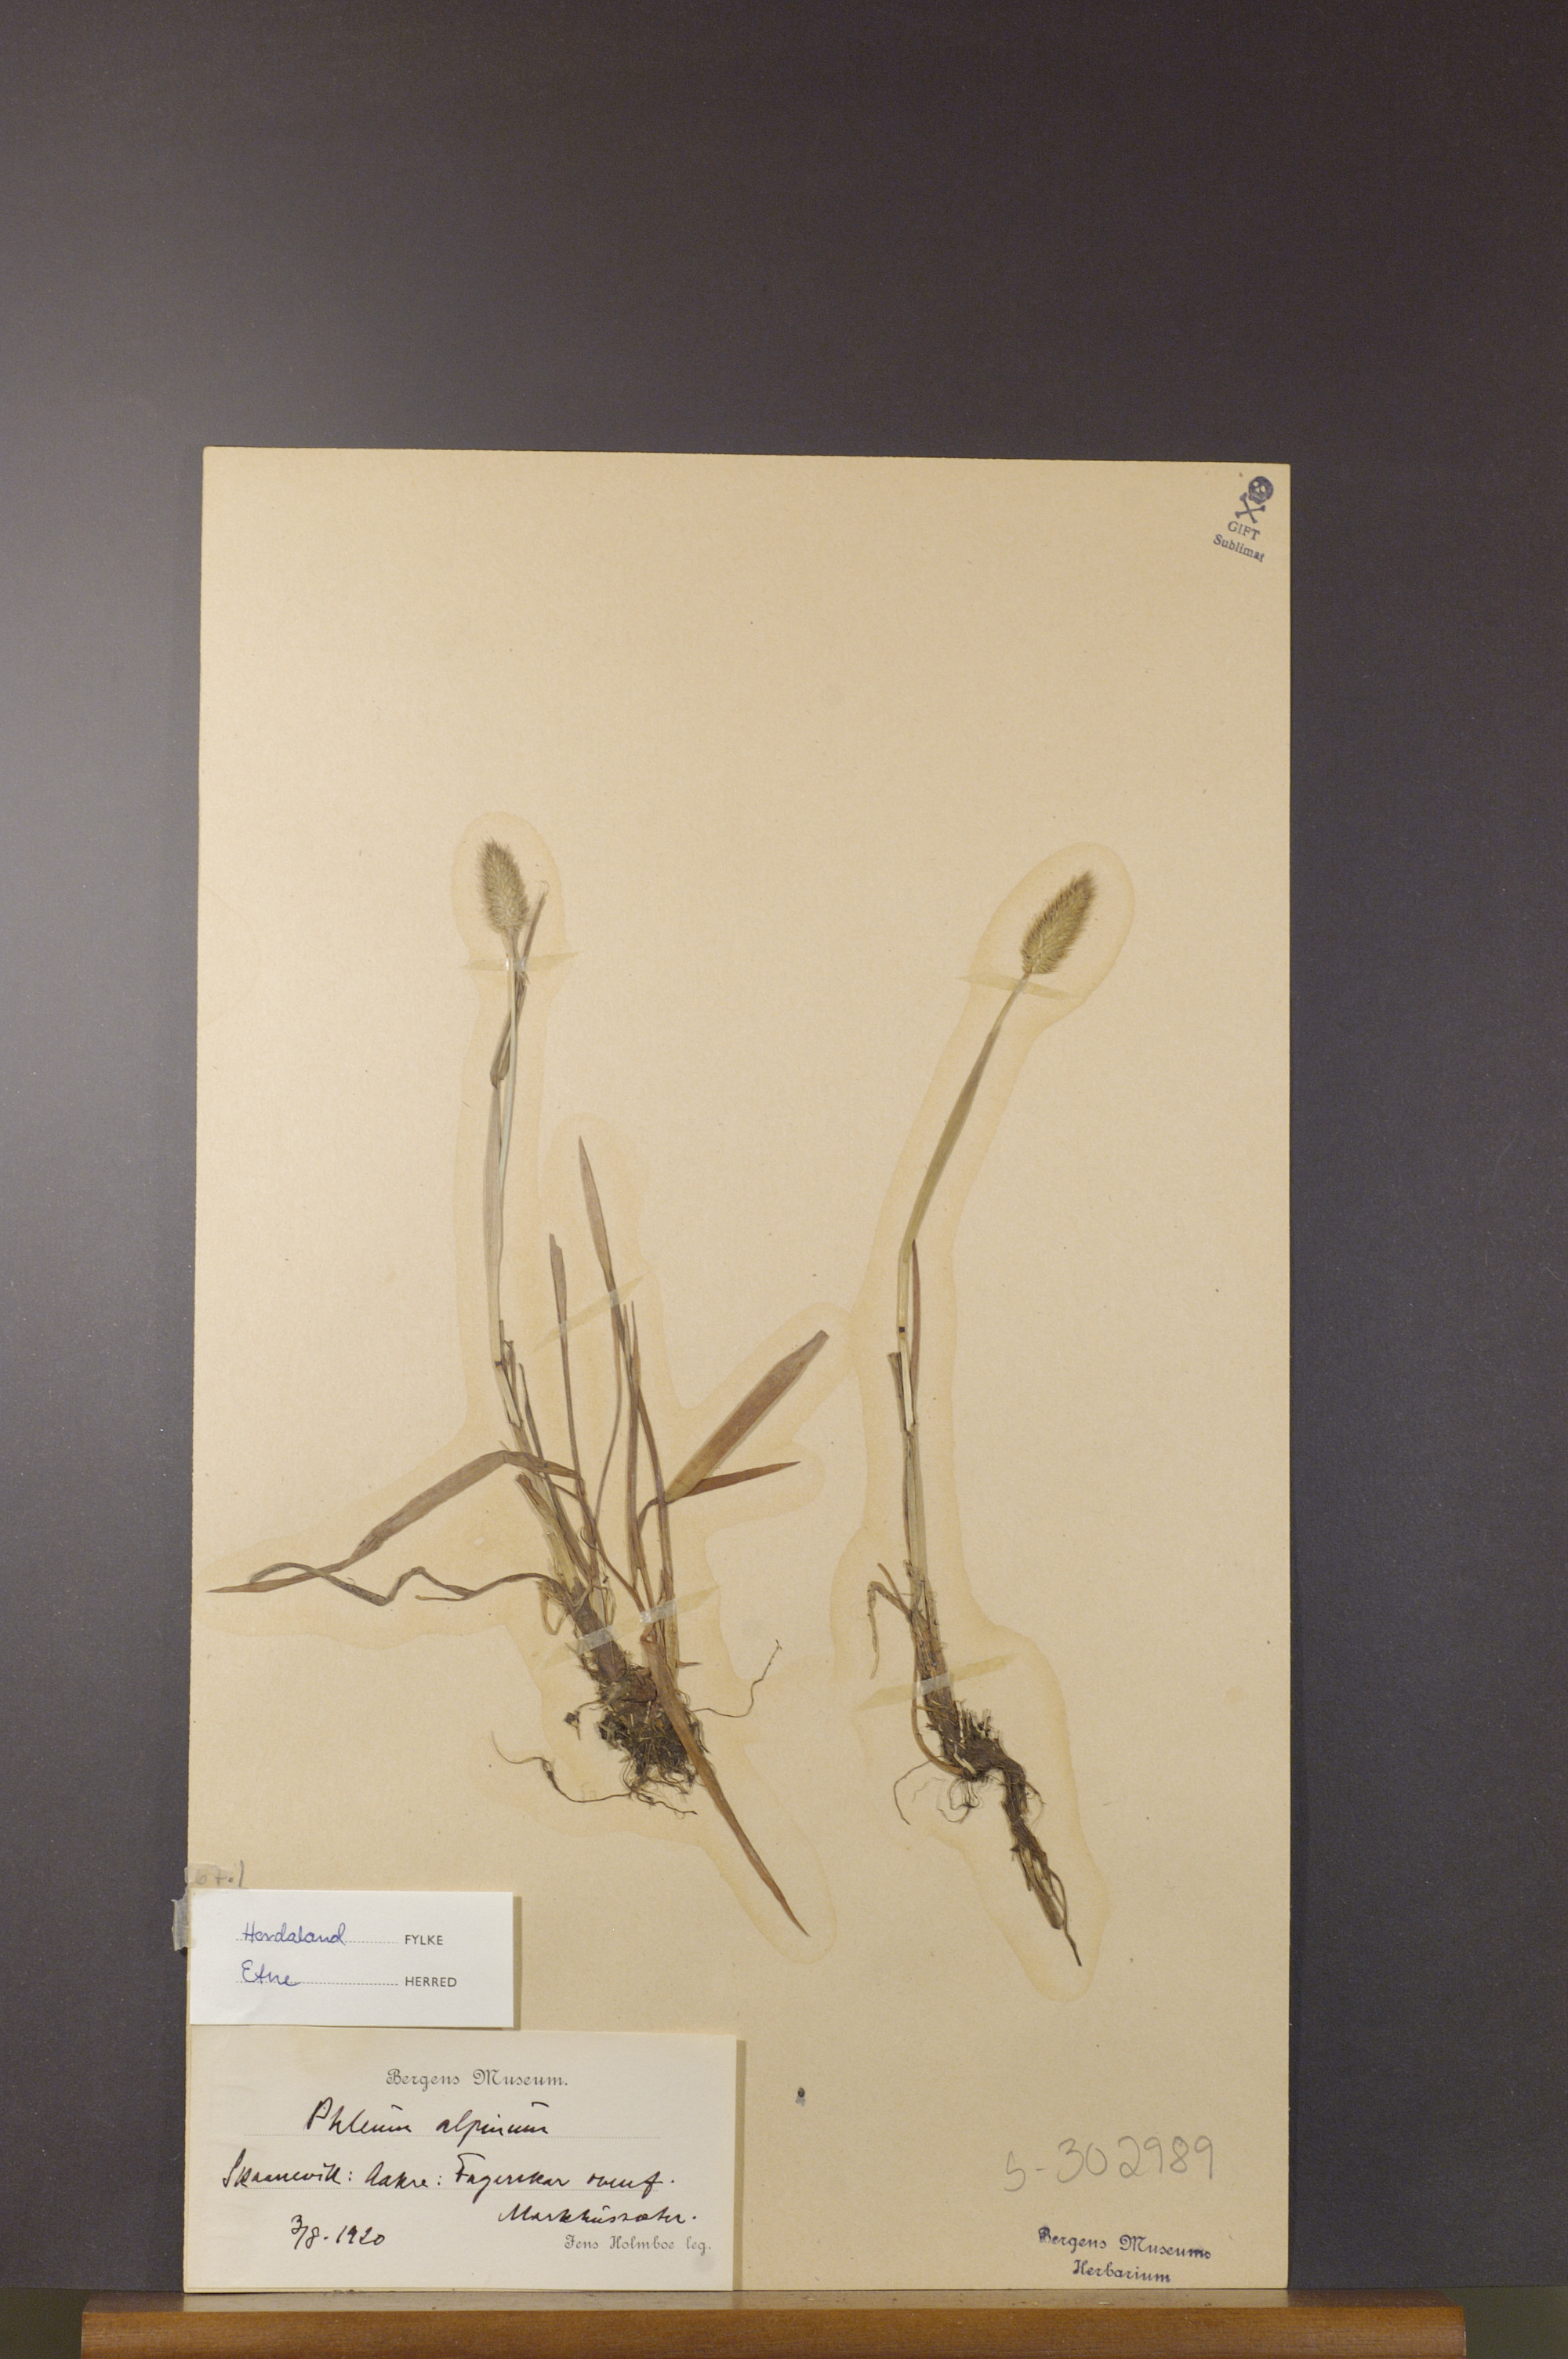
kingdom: Plantae
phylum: Tracheophyta
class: Liliopsida
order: Poales
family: Poaceae
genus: Phleum
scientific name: Phleum alpinum
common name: Alpine cat's-tail
